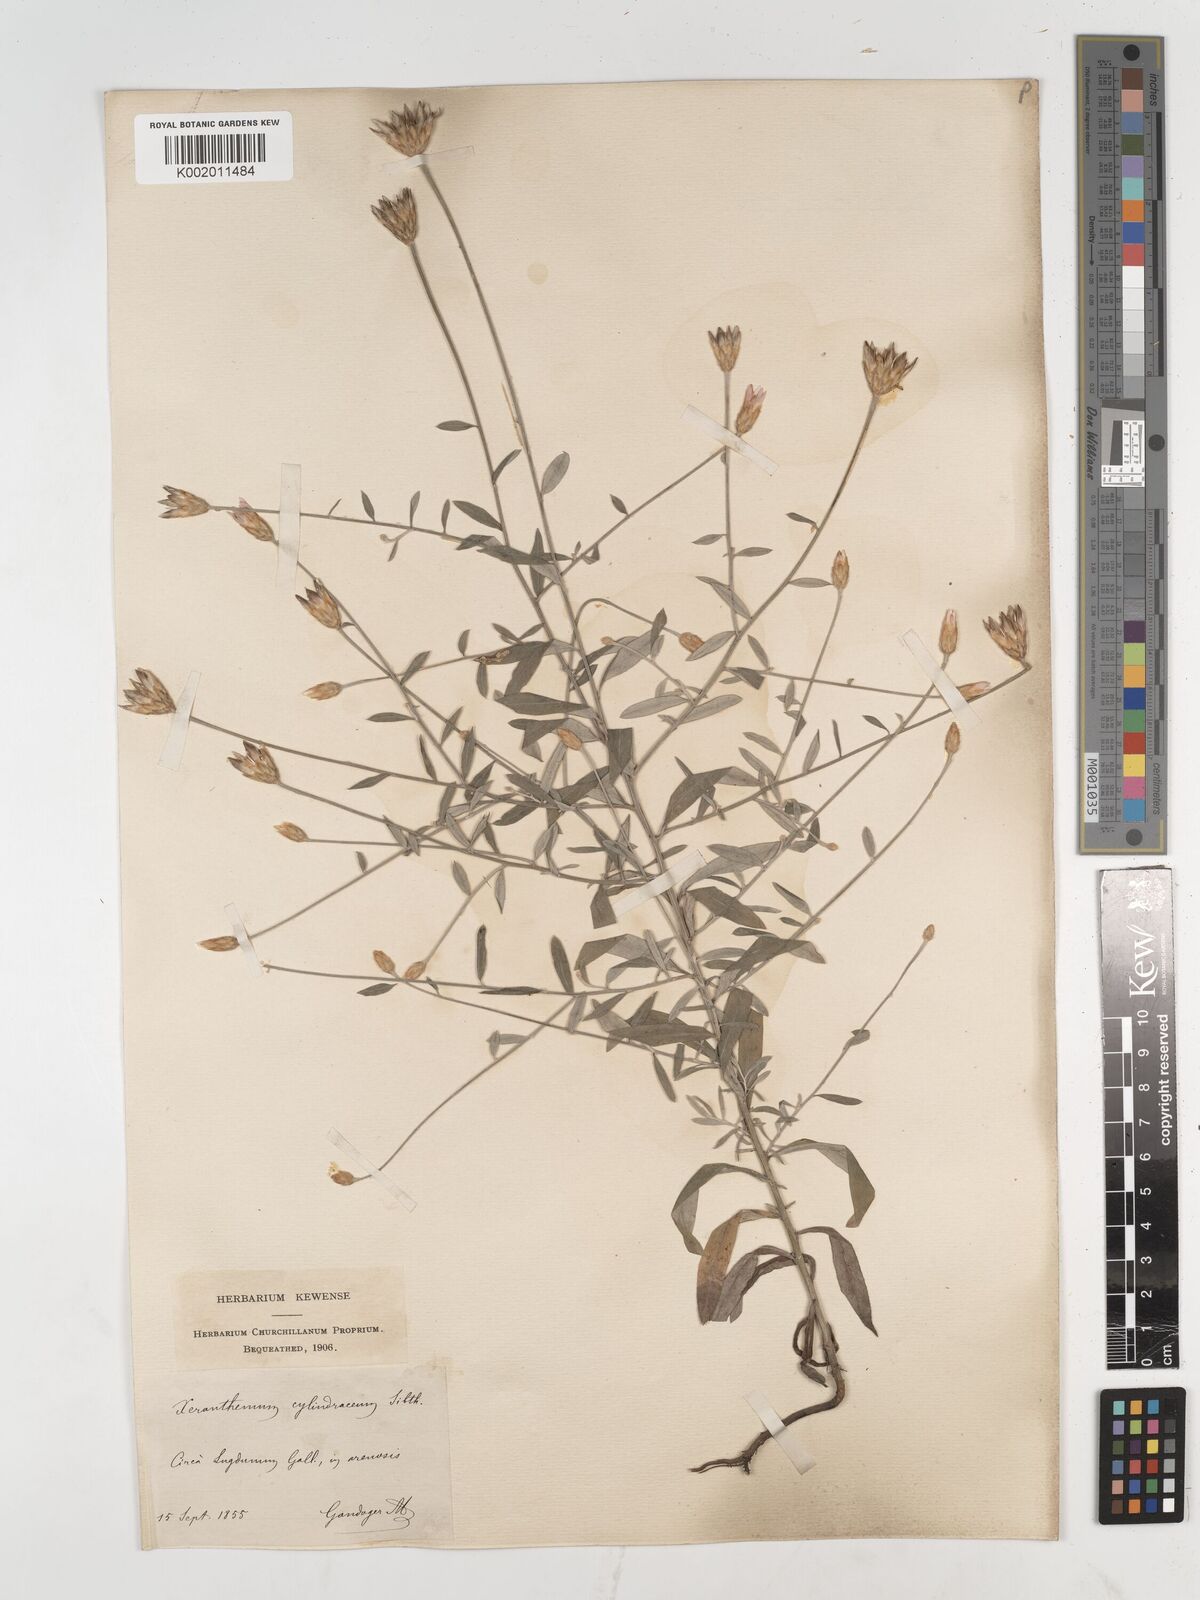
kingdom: Plantae
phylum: Tracheophyta
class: Magnoliopsida
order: Asterales
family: Asteraceae
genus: Xeranthemum
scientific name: Xeranthemum cylindraceum
